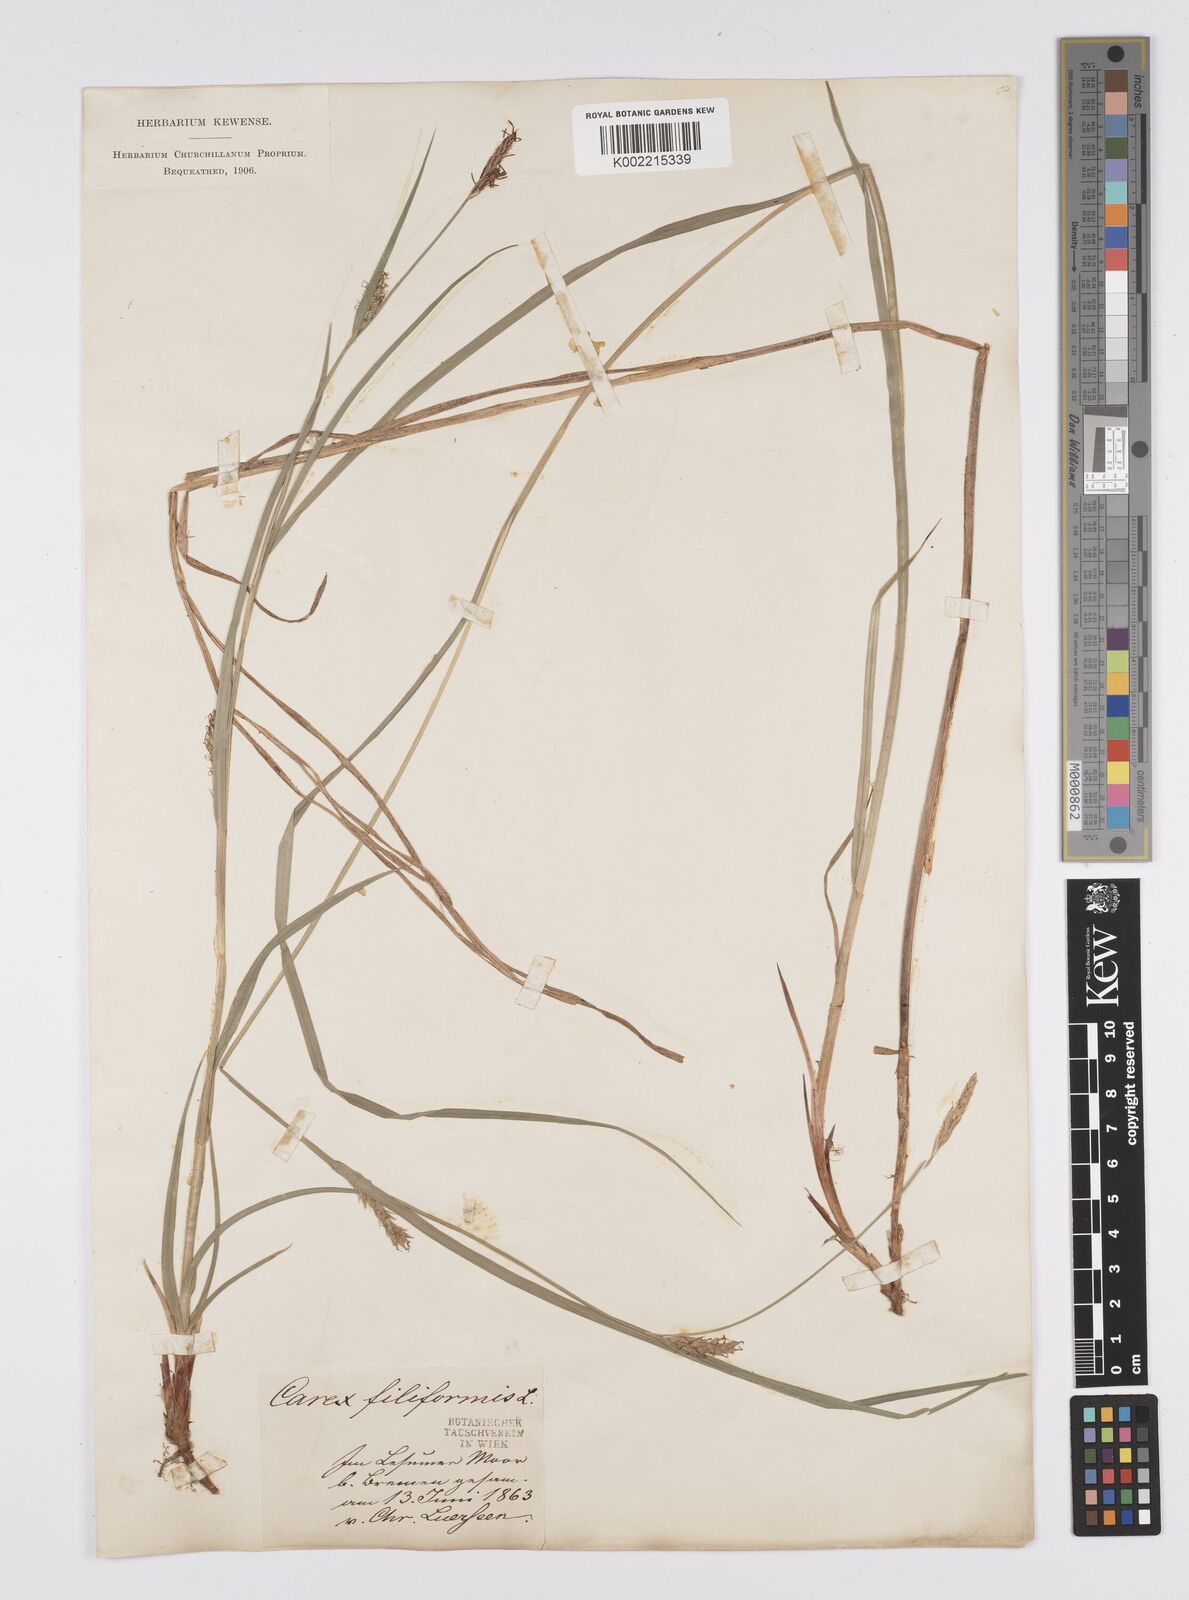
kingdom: Plantae
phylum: Tracheophyta
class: Liliopsida
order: Poales
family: Cyperaceae
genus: Carex
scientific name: Carex lasiocarpa
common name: Slender sedge
